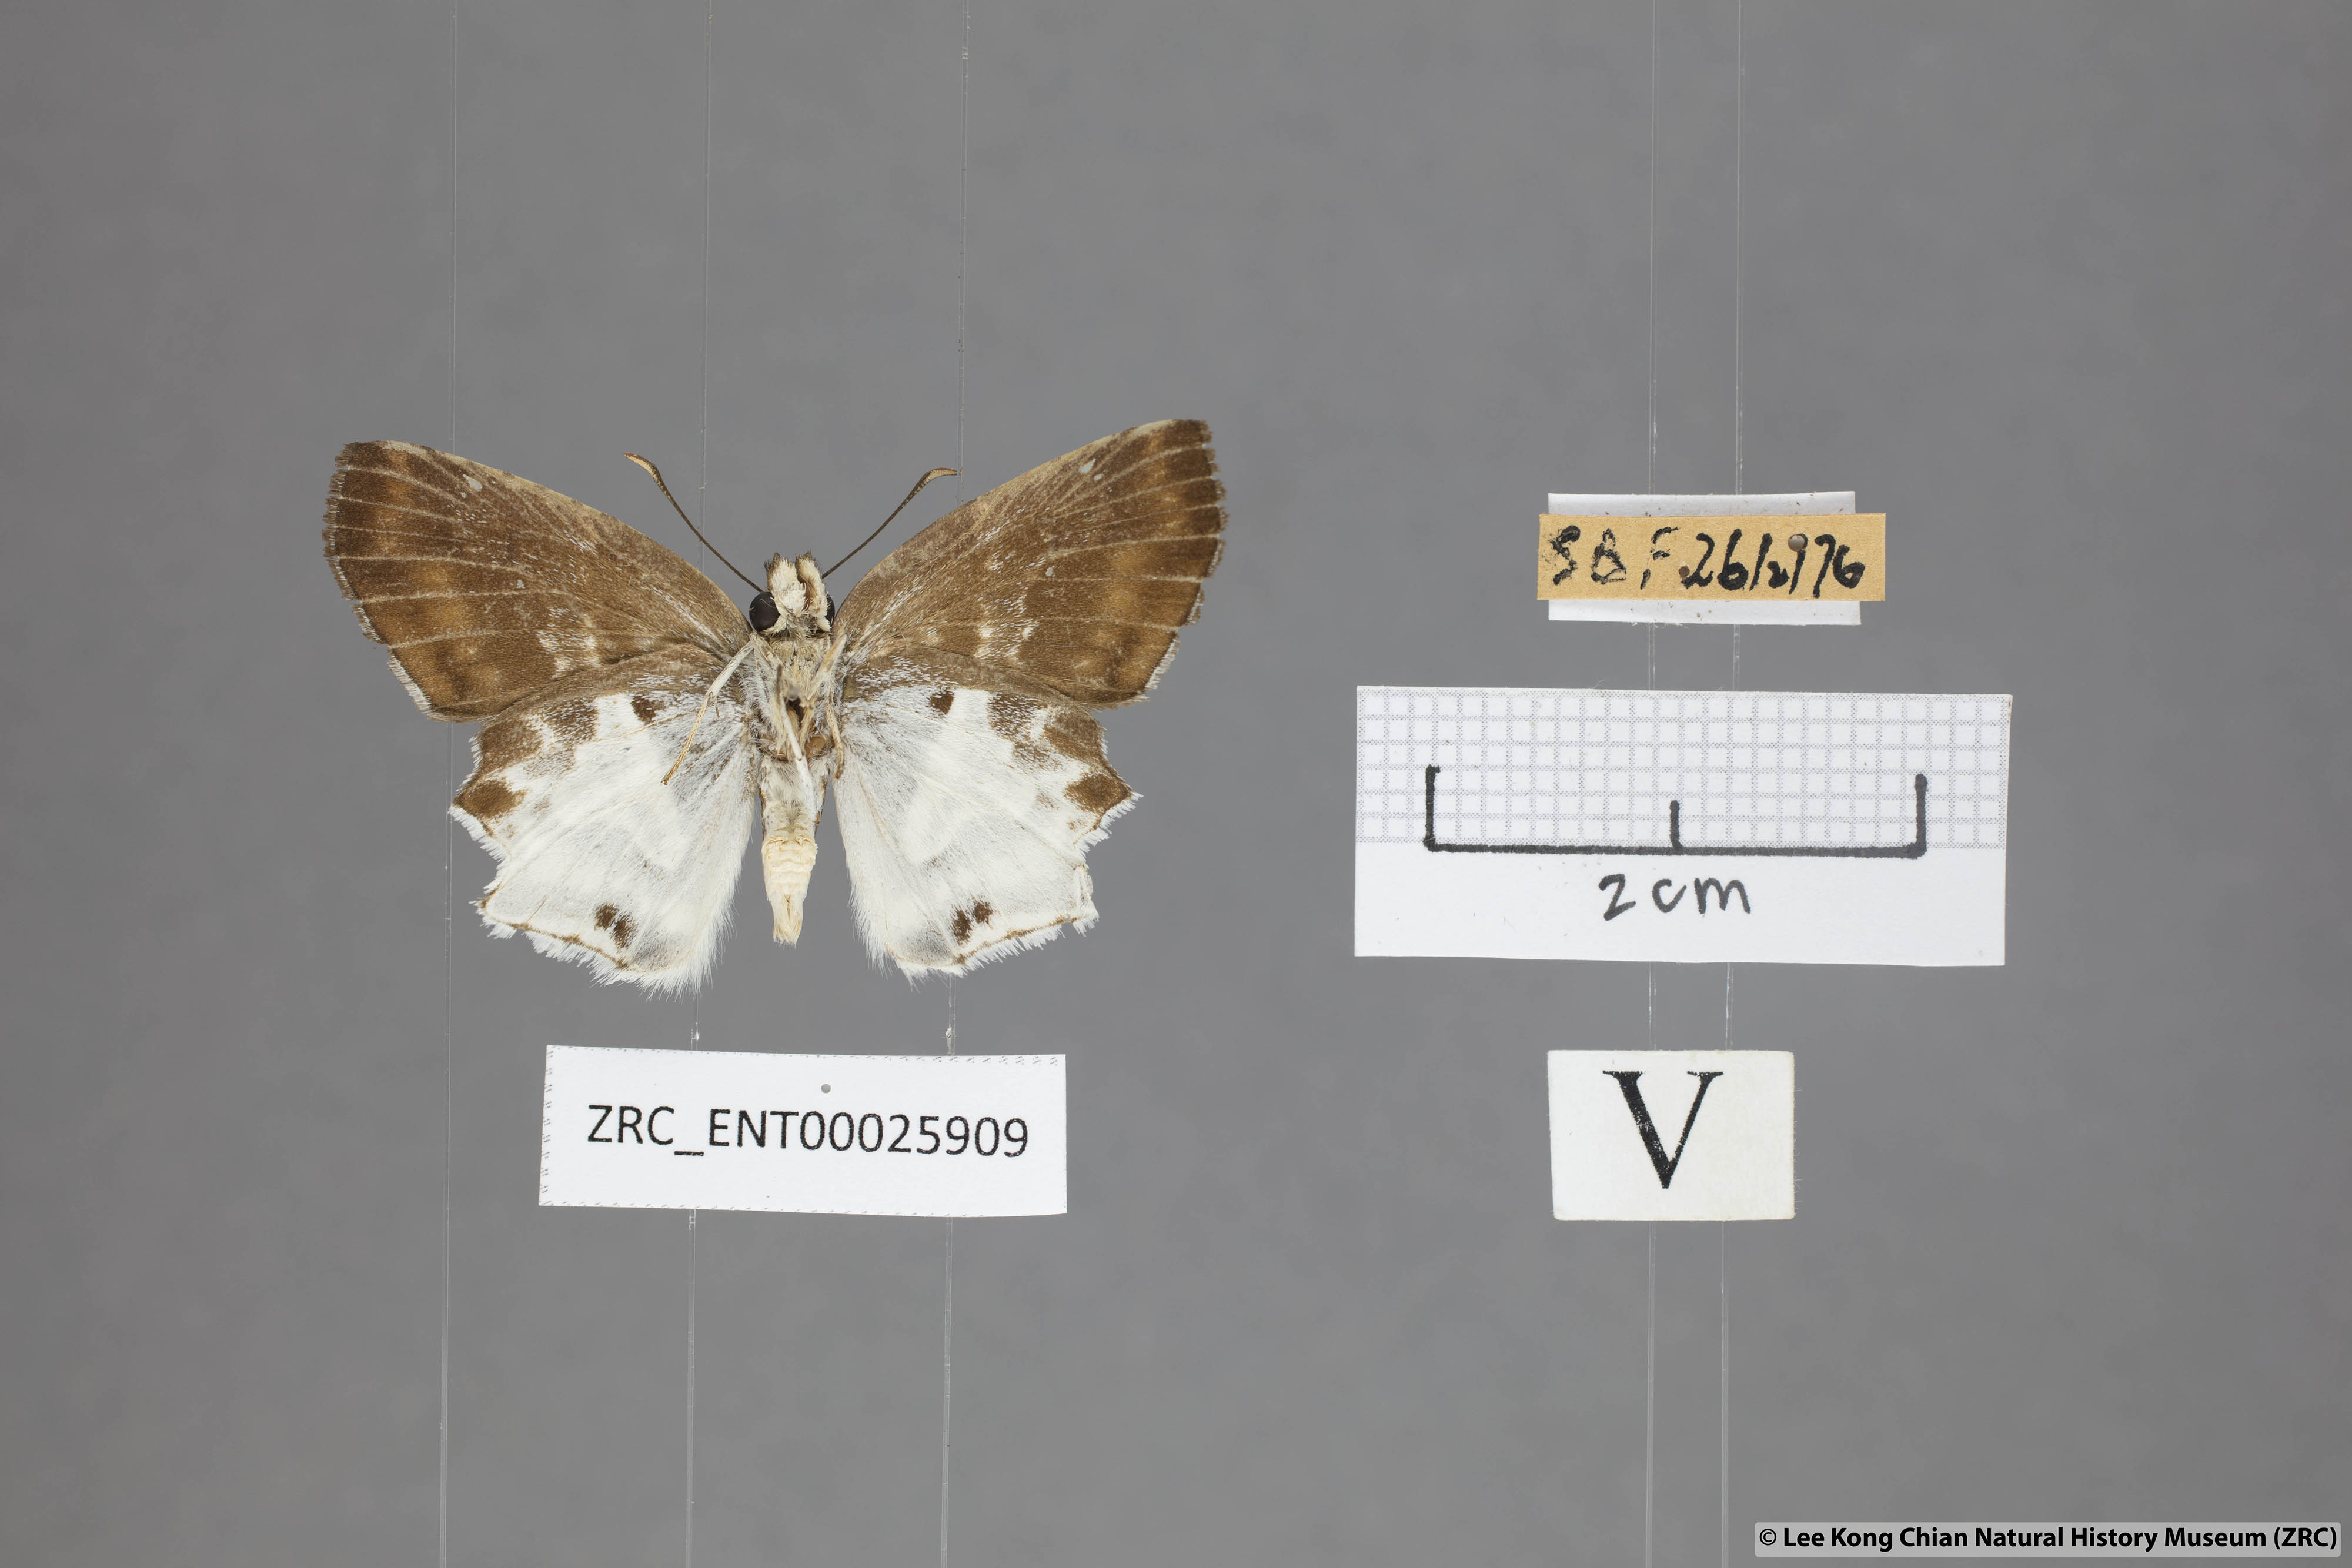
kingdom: Animalia
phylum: Arthropoda
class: Insecta
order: Lepidoptera
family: Hesperiidae
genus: Odontoptilum
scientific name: Odontoptilum pygela
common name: Banded angle
